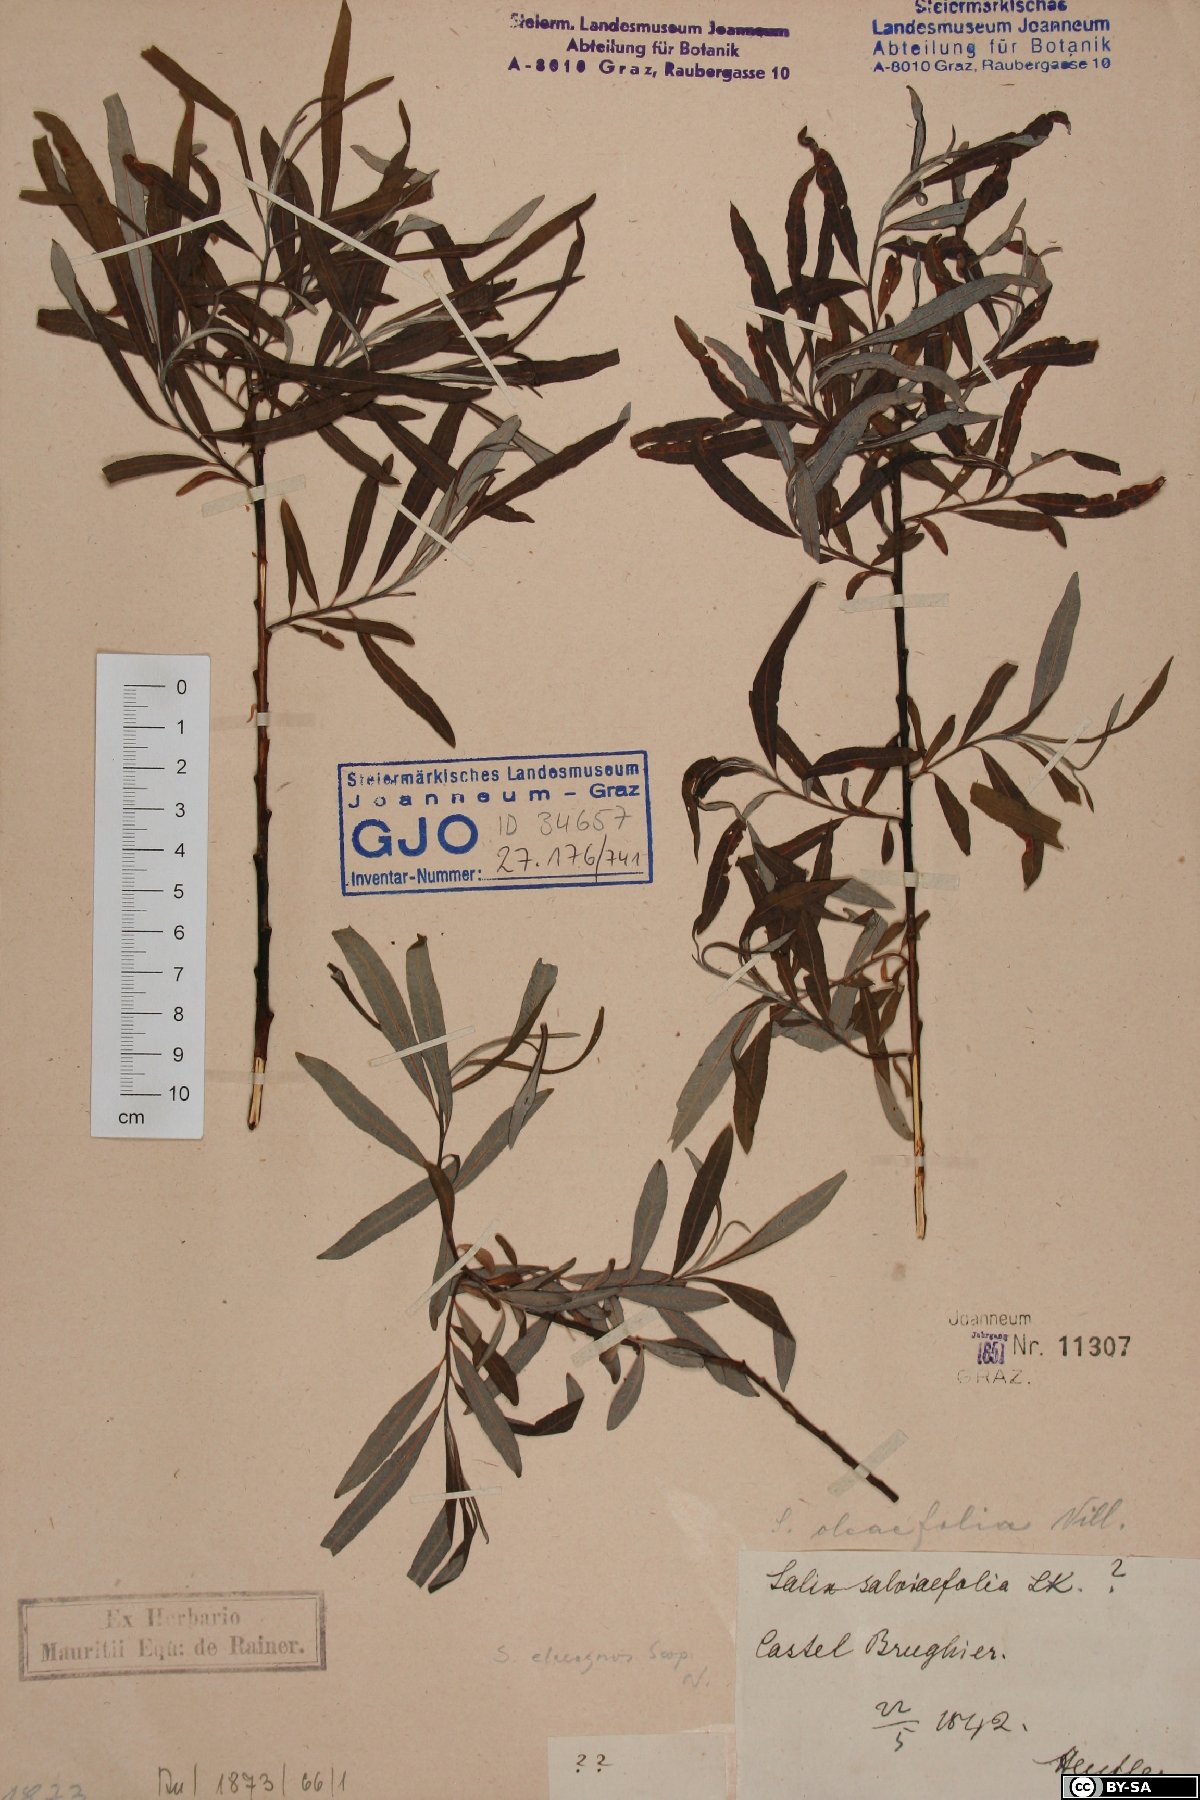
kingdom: Plantae
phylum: Tracheophyta
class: Magnoliopsida
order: Malpighiales
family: Salicaceae
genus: Salix
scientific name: Salix eleagnos
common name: Elaeagnus willow
